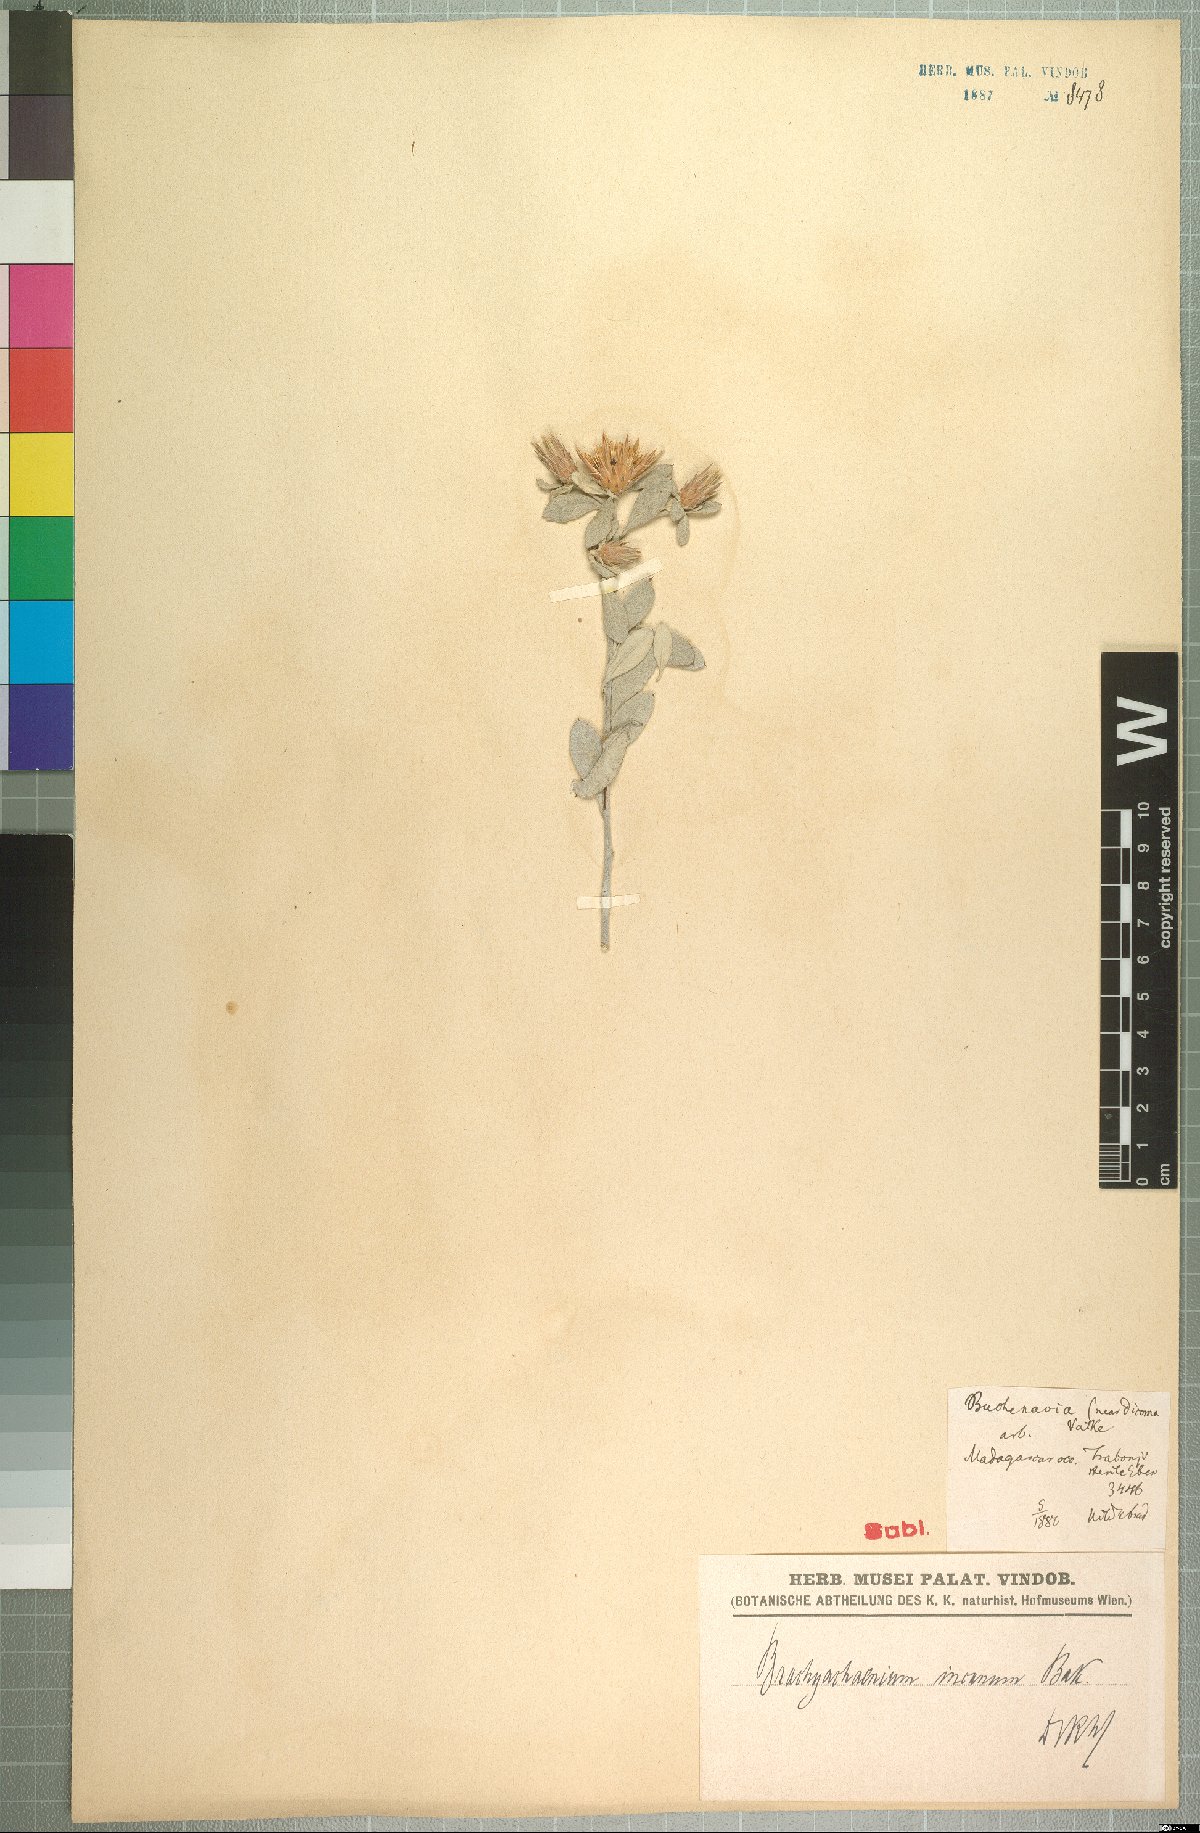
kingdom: Plantae
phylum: Tracheophyta
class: Magnoliopsida
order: Asterales
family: Asteraceae
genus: Dicoma
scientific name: Dicoma incana
